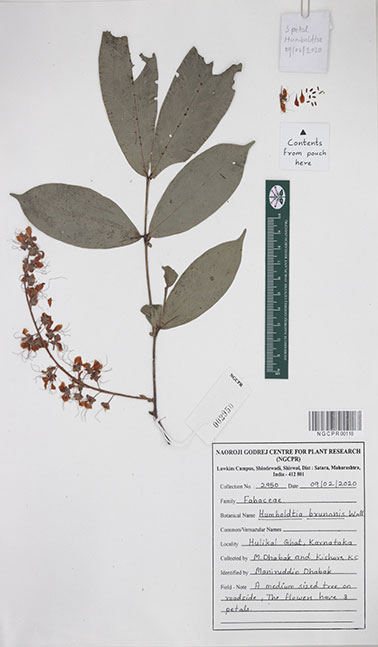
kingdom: Plantae
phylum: Tracheophyta
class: Magnoliopsida
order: Fabales
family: Fabaceae
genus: Humboldtia
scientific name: Humboldtia brunonis
